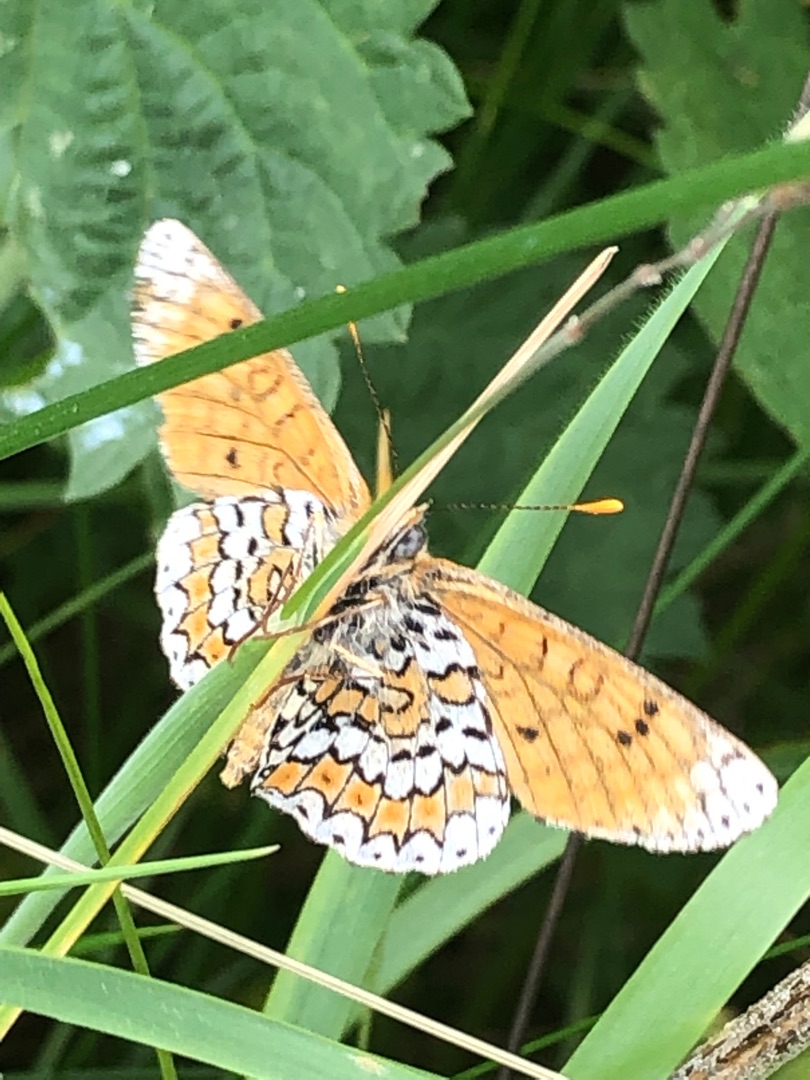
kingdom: Animalia
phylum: Arthropoda
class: Insecta
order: Lepidoptera
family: Nymphalidae
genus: Melitaea
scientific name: Melitaea cinxia
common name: Okkergul pletvinge
